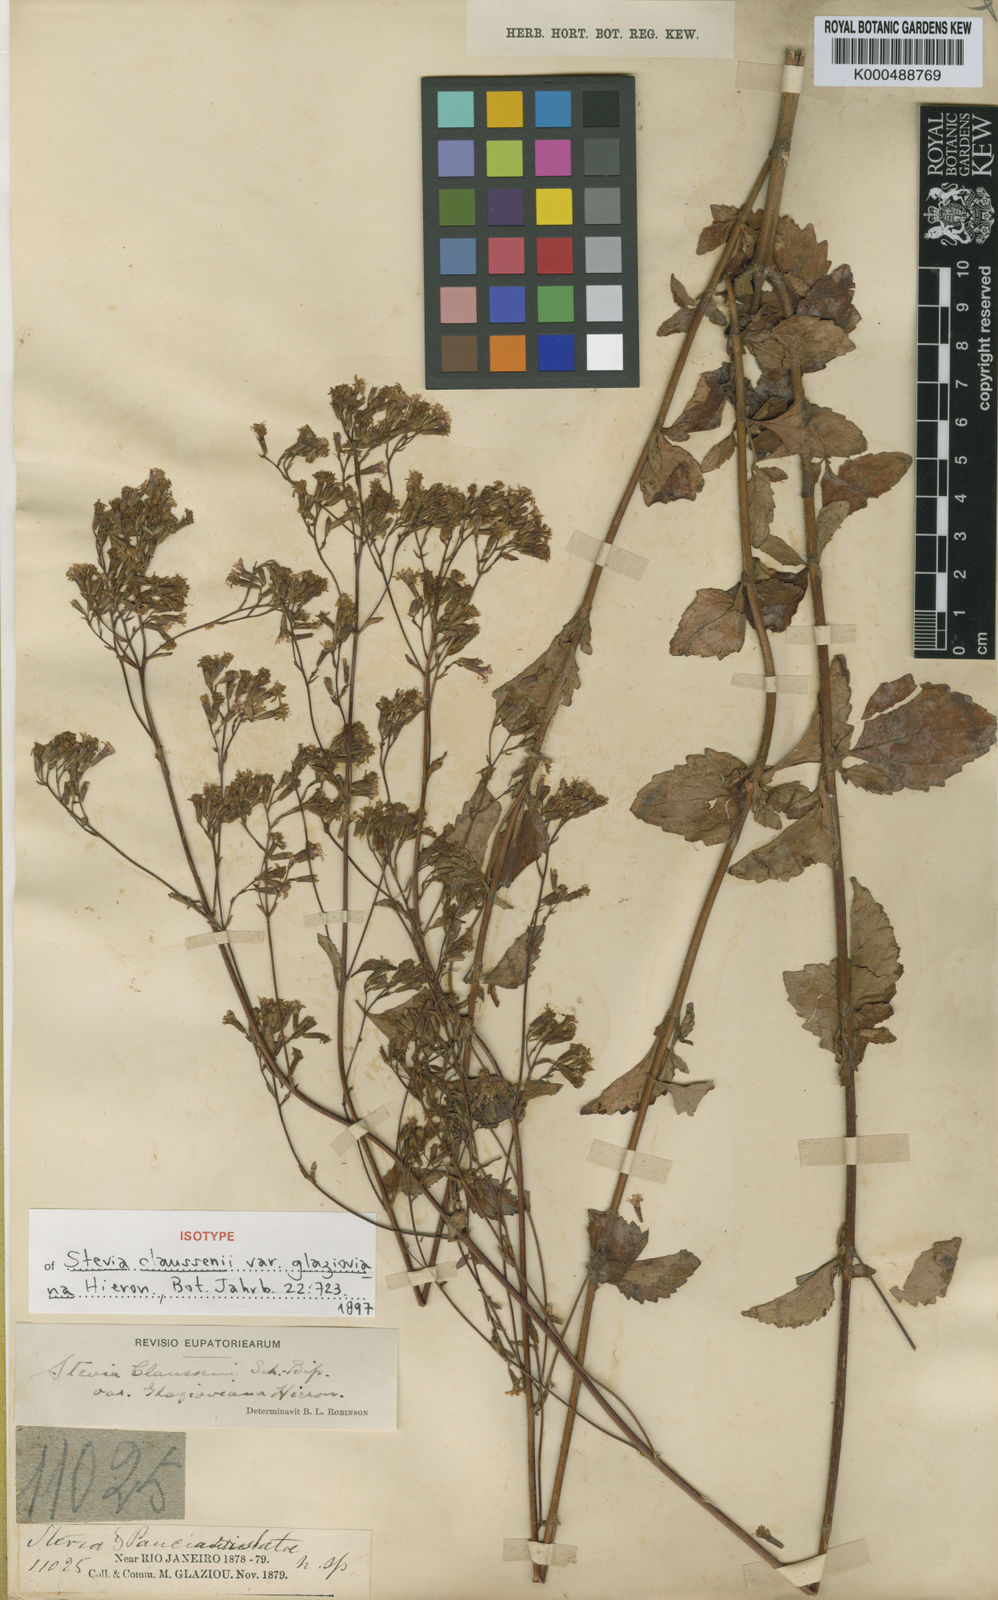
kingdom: Plantae
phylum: Tracheophyta
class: Magnoliopsida
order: Asterales
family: Asteraceae
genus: Stevia
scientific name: Stevia claussenii
